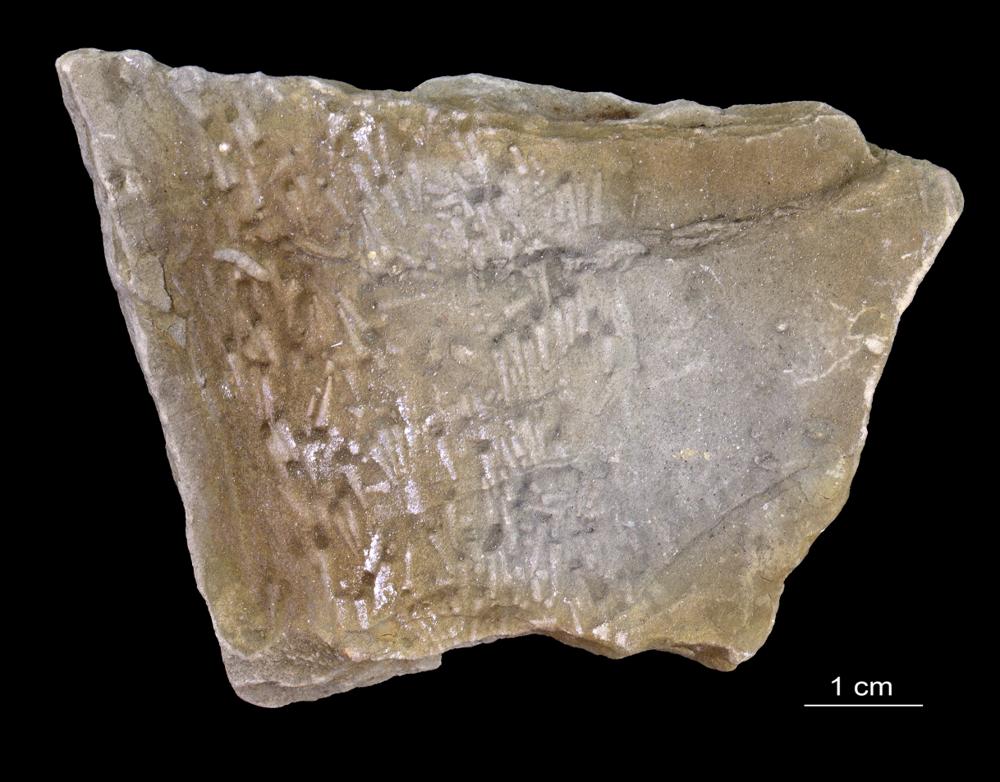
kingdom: Animalia
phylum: Annelida
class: Polychaeta
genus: Volborthella
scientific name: Volborthella tenuis
